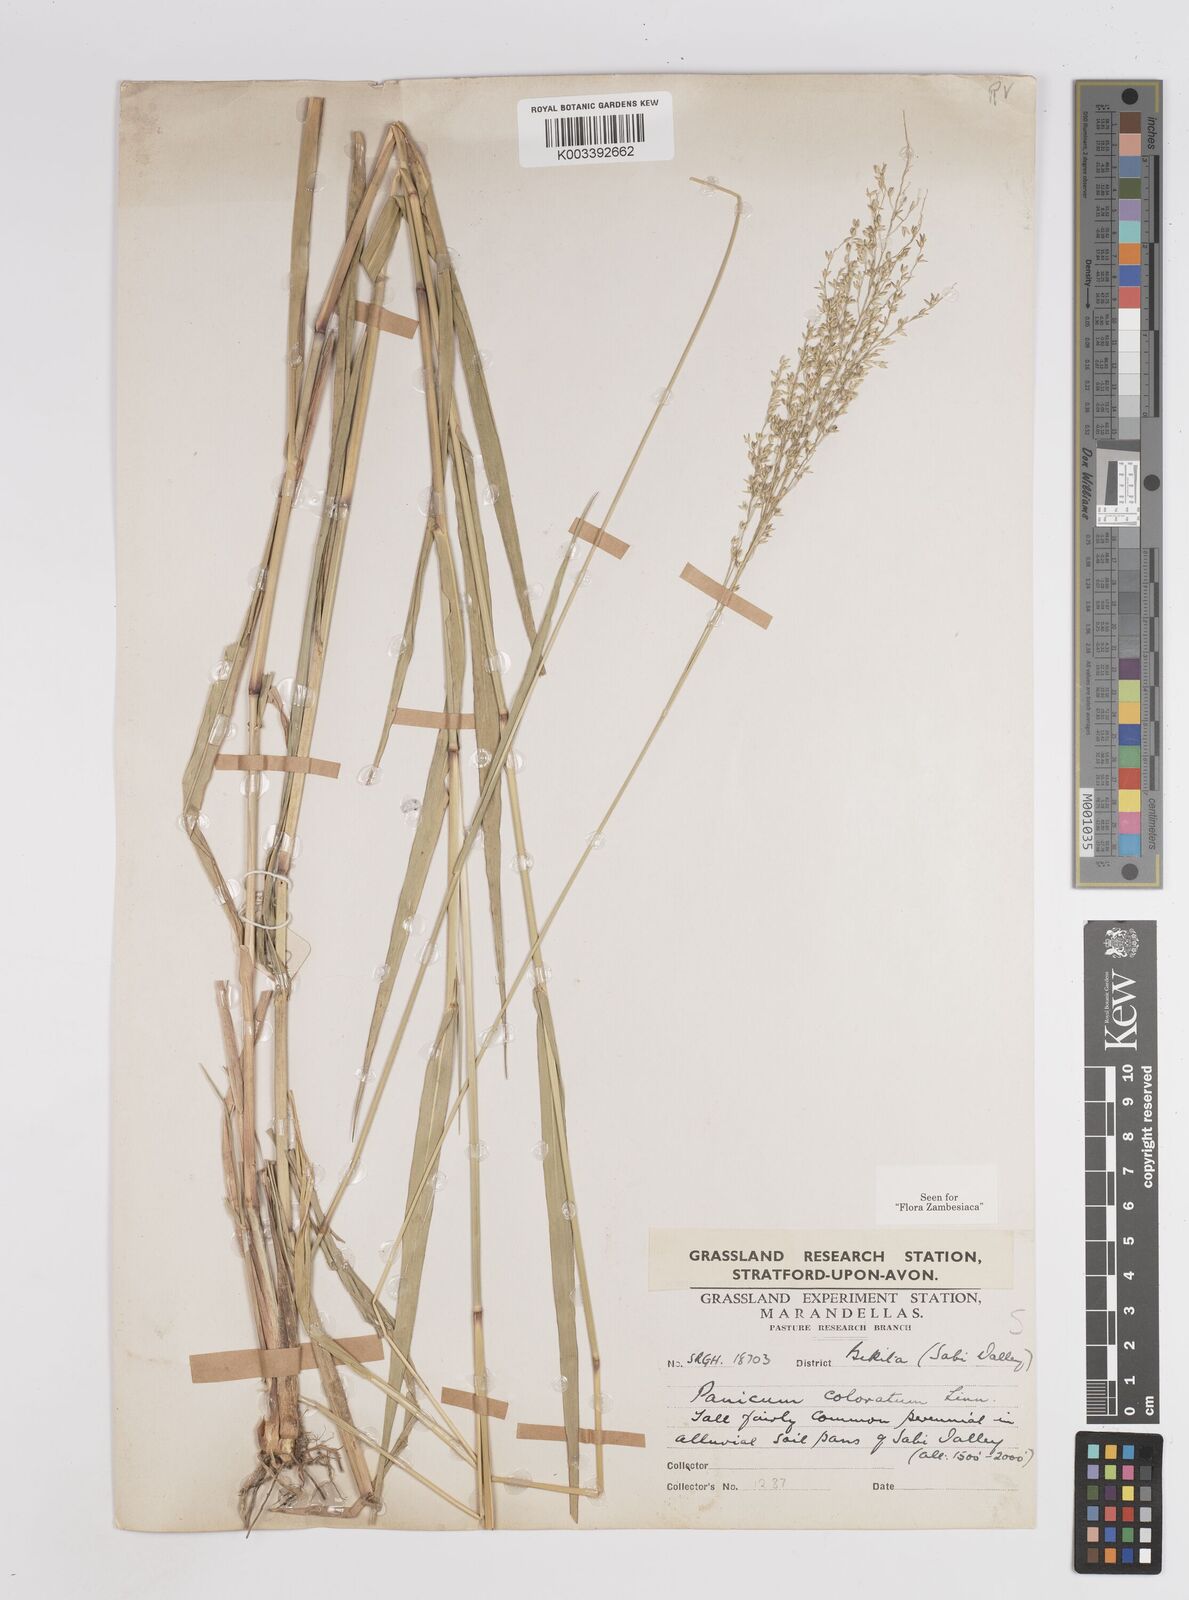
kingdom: Plantae
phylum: Tracheophyta
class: Liliopsida
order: Poales
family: Poaceae
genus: Panicum
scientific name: Panicum coloratum
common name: Kleingrass
